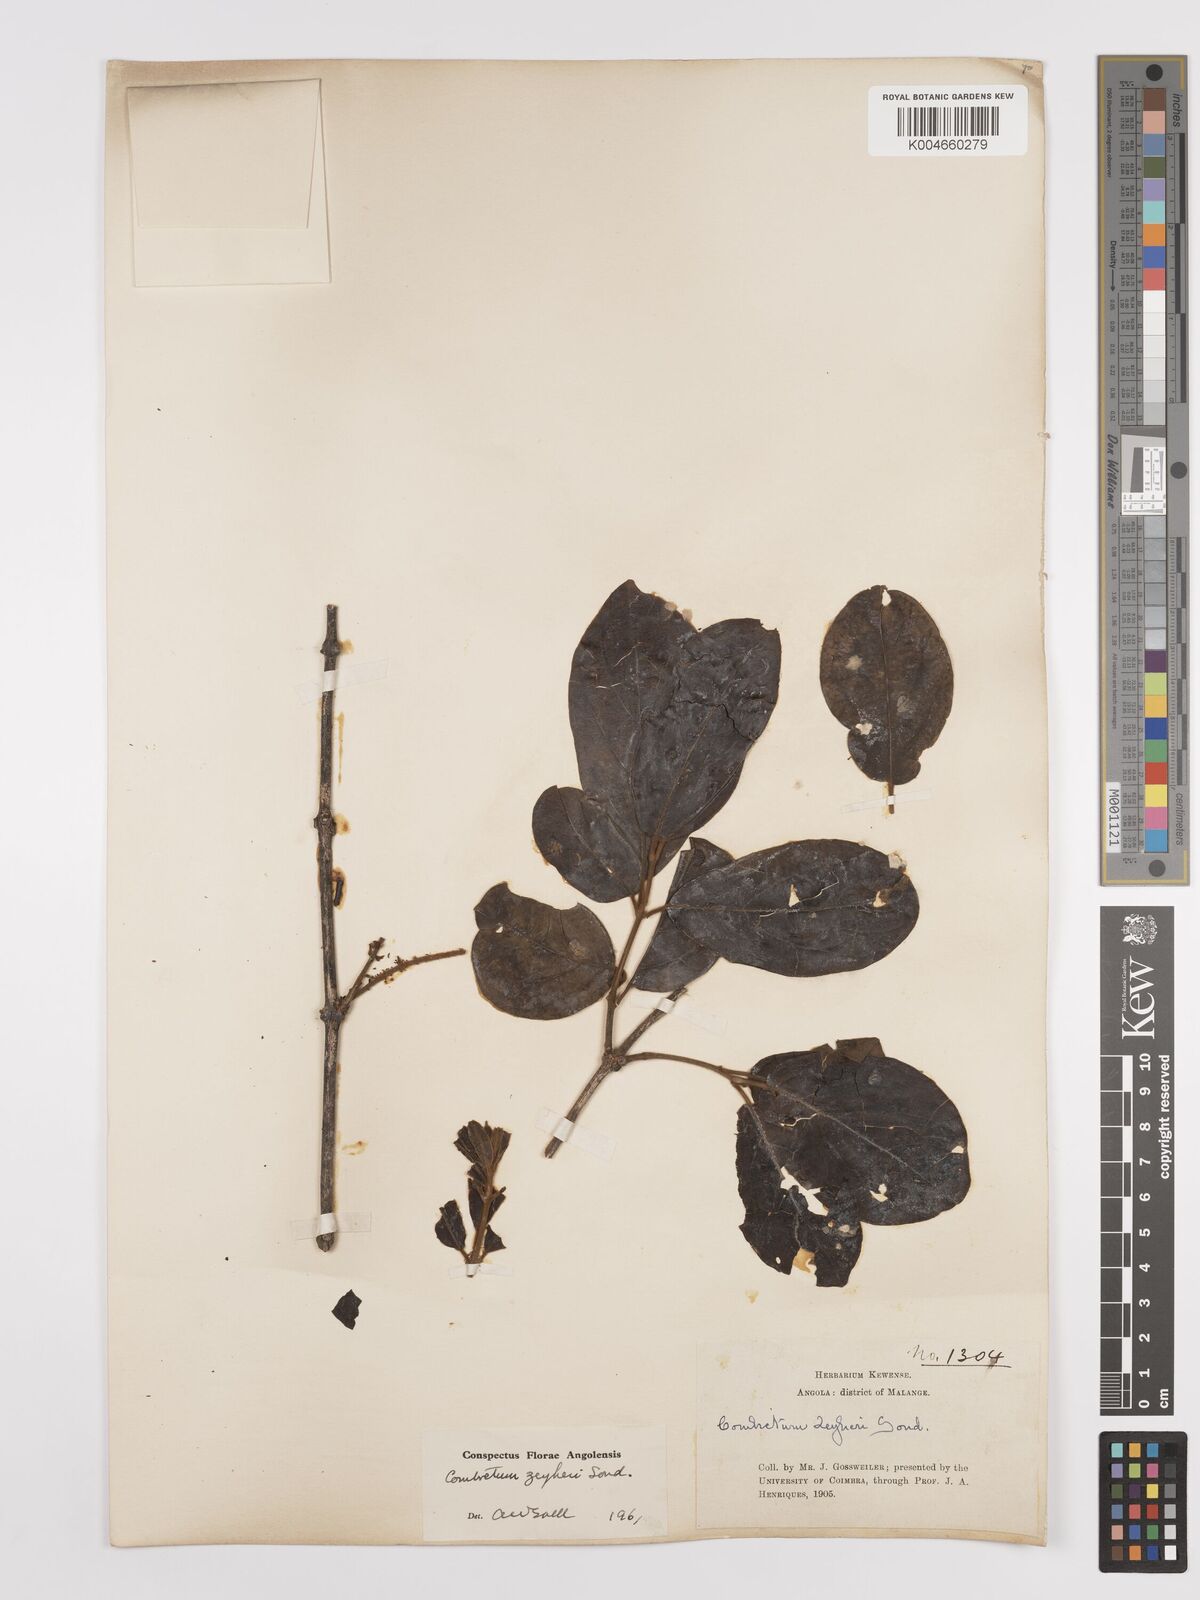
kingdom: Plantae
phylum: Tracheophyta
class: Magnoliopsida
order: Myrtales
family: Combretaceae
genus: Combretum
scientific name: Combretum zeyheri
